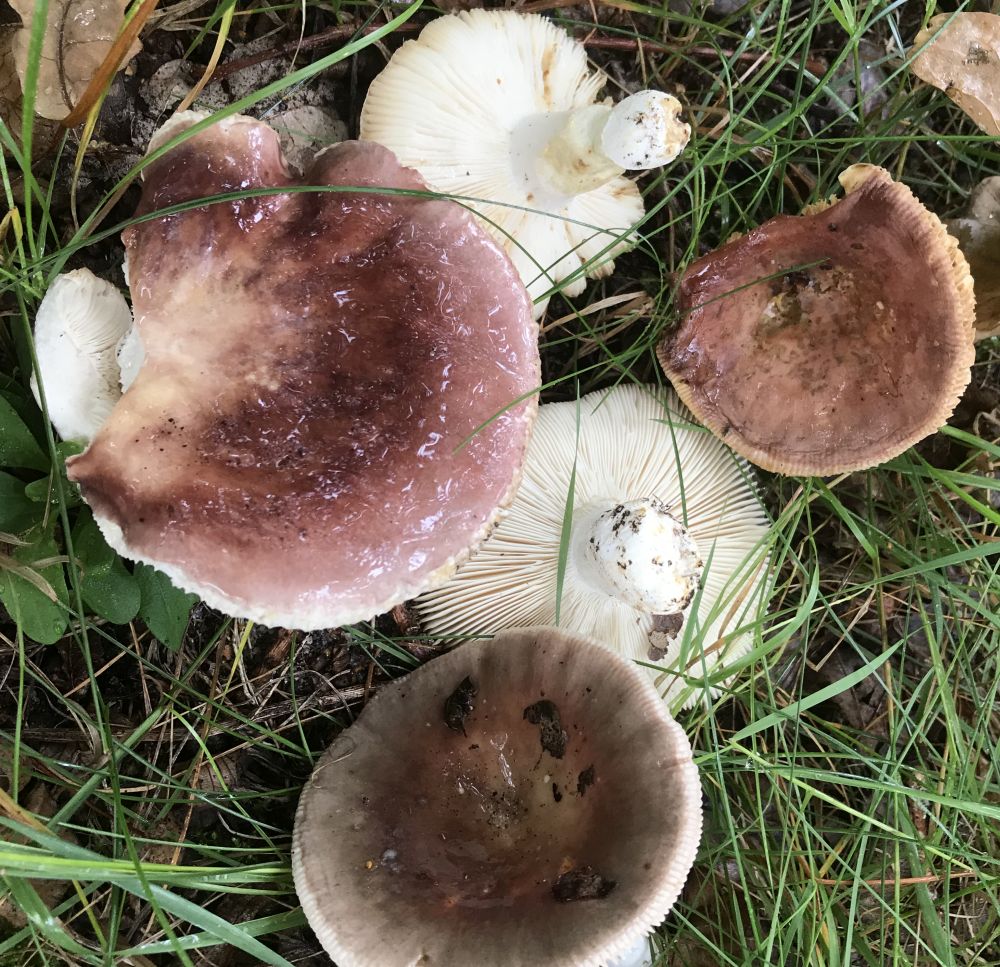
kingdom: Fungi
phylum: Basidiomycota
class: Agaricomycetes
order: Russulales
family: Russulaceae
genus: Russula
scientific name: Russula vesca
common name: spiselig skørhat
